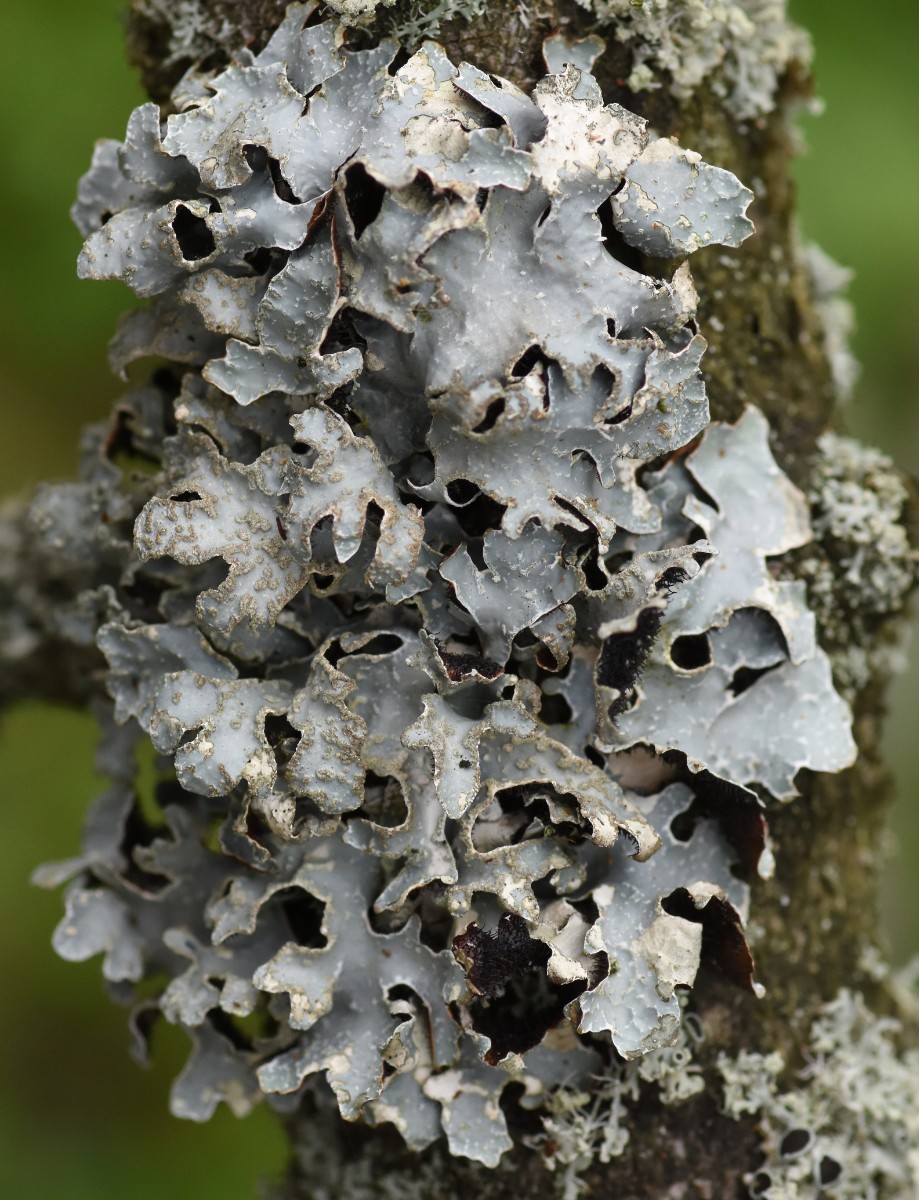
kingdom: Fungi
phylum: Ascomycota
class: Lecanoromycetes
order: Lecanorales
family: Parmeliaceae
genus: Parmelia
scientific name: Parmelia sulcata
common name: rynket skållav
